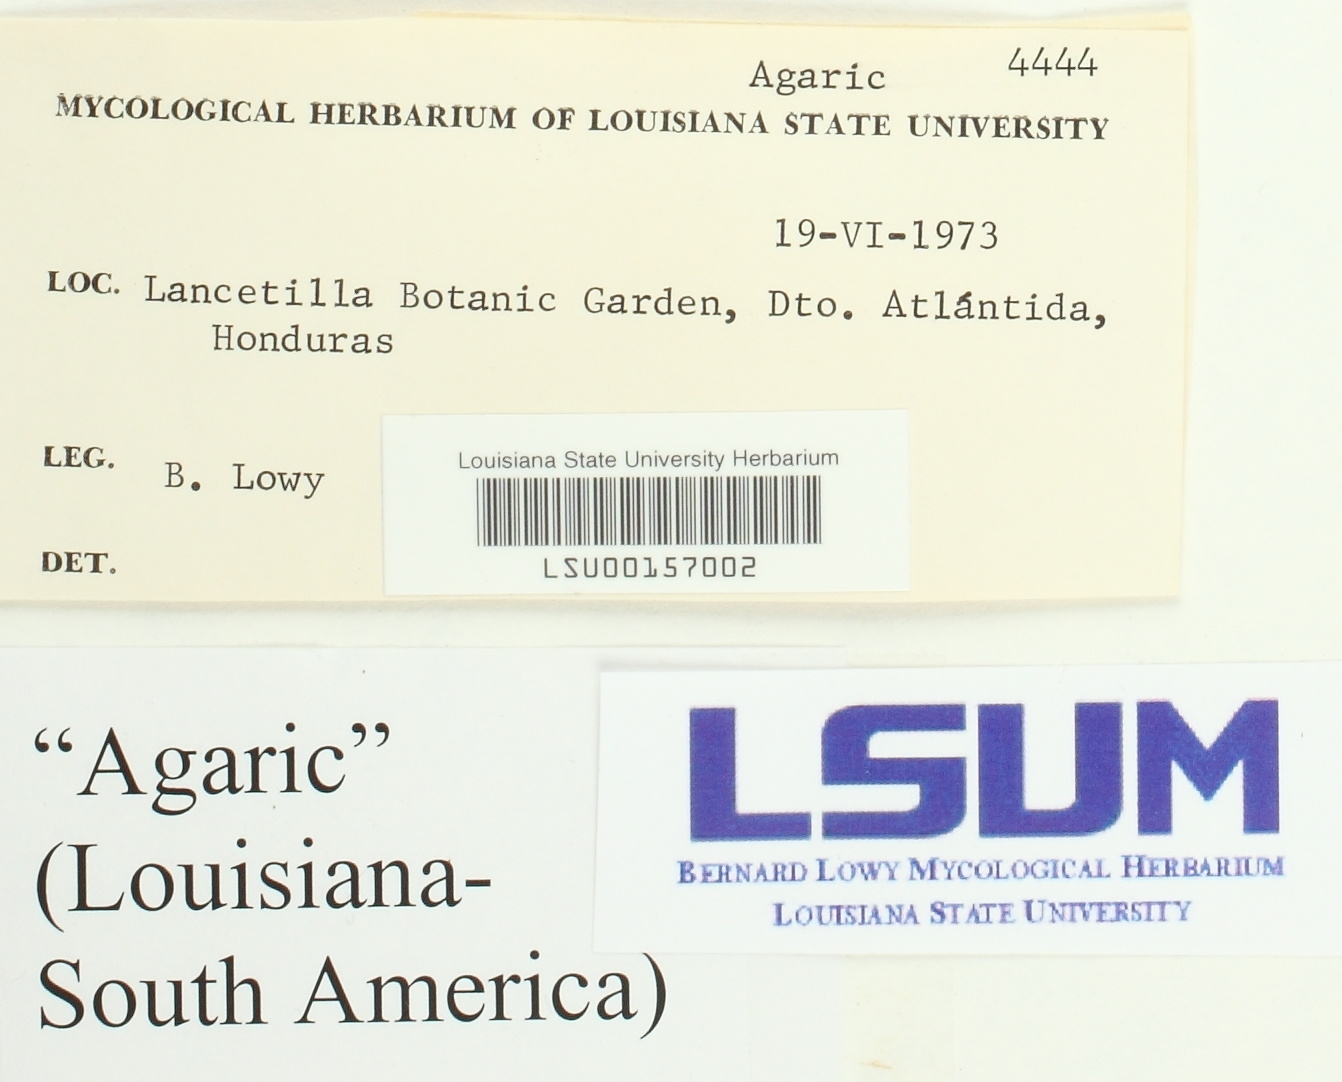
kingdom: Fungi
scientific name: Fungi
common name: Fungi
